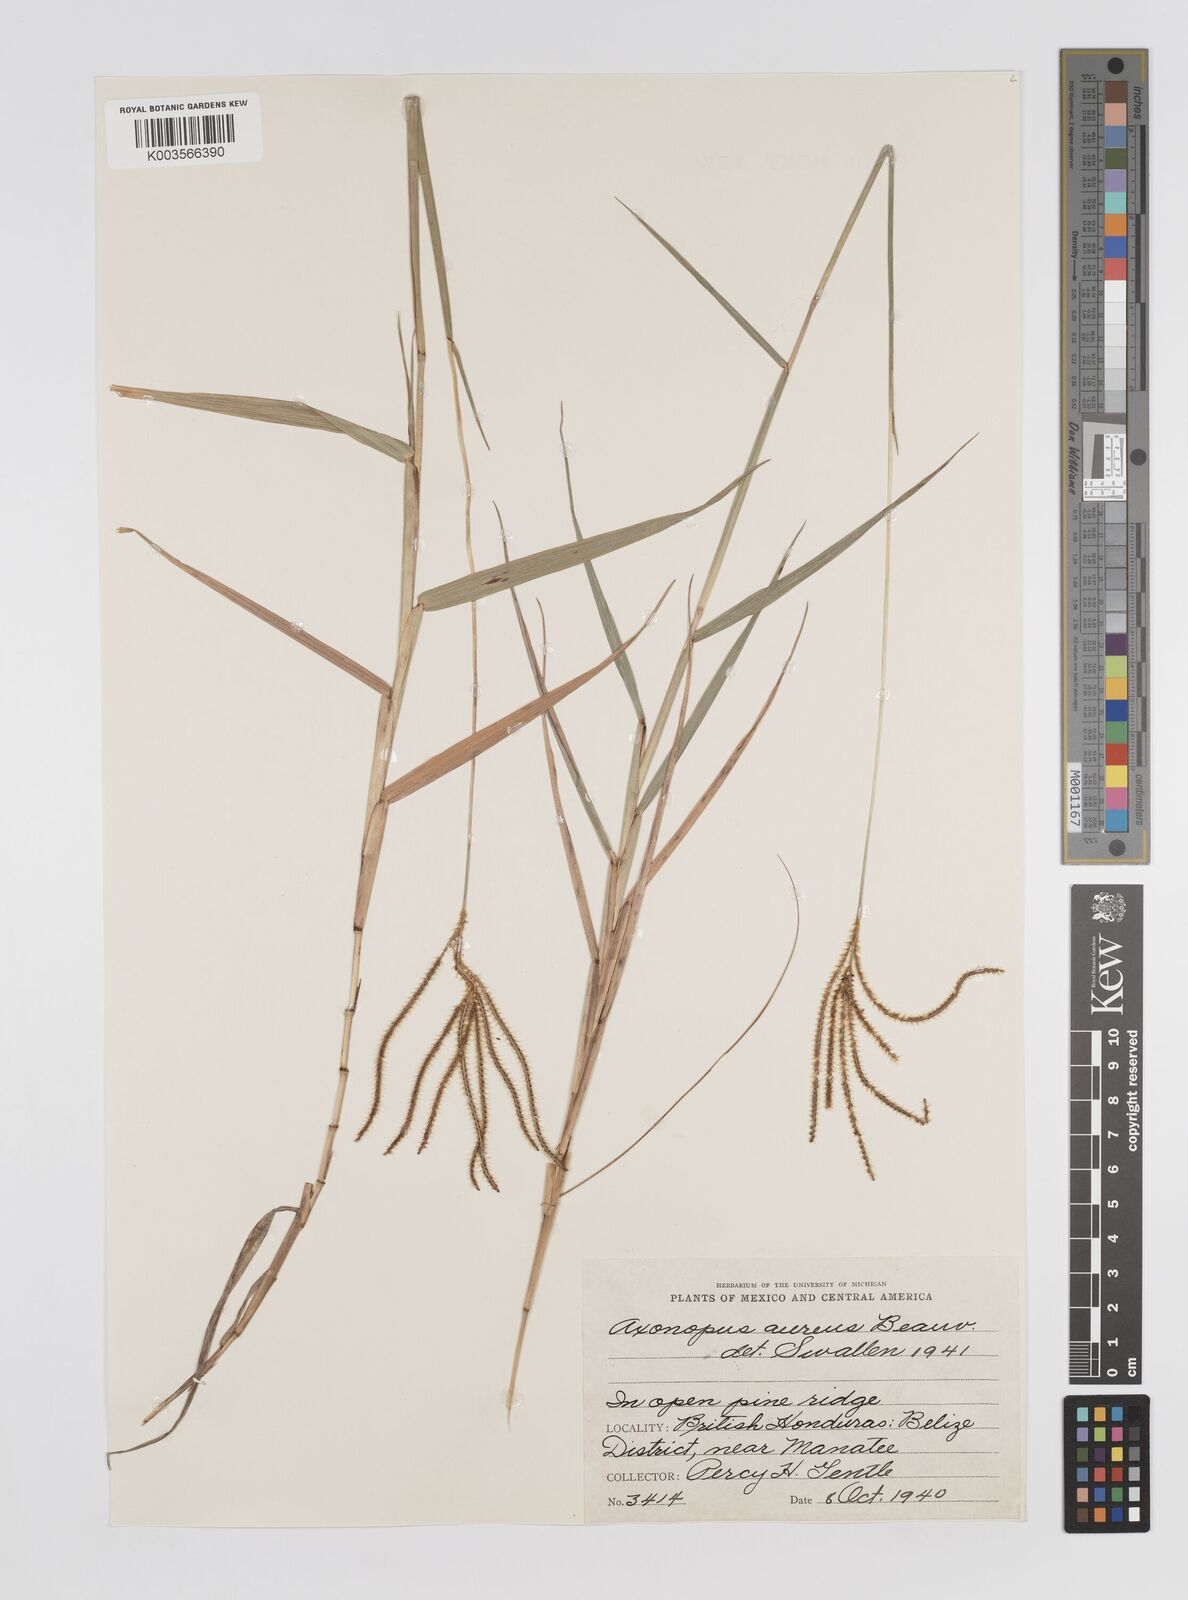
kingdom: Plantae
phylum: Tracheophyta
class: Liliopsida
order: Poales
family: Poaceae
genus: Axonopus
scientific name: Axonopus aureus
